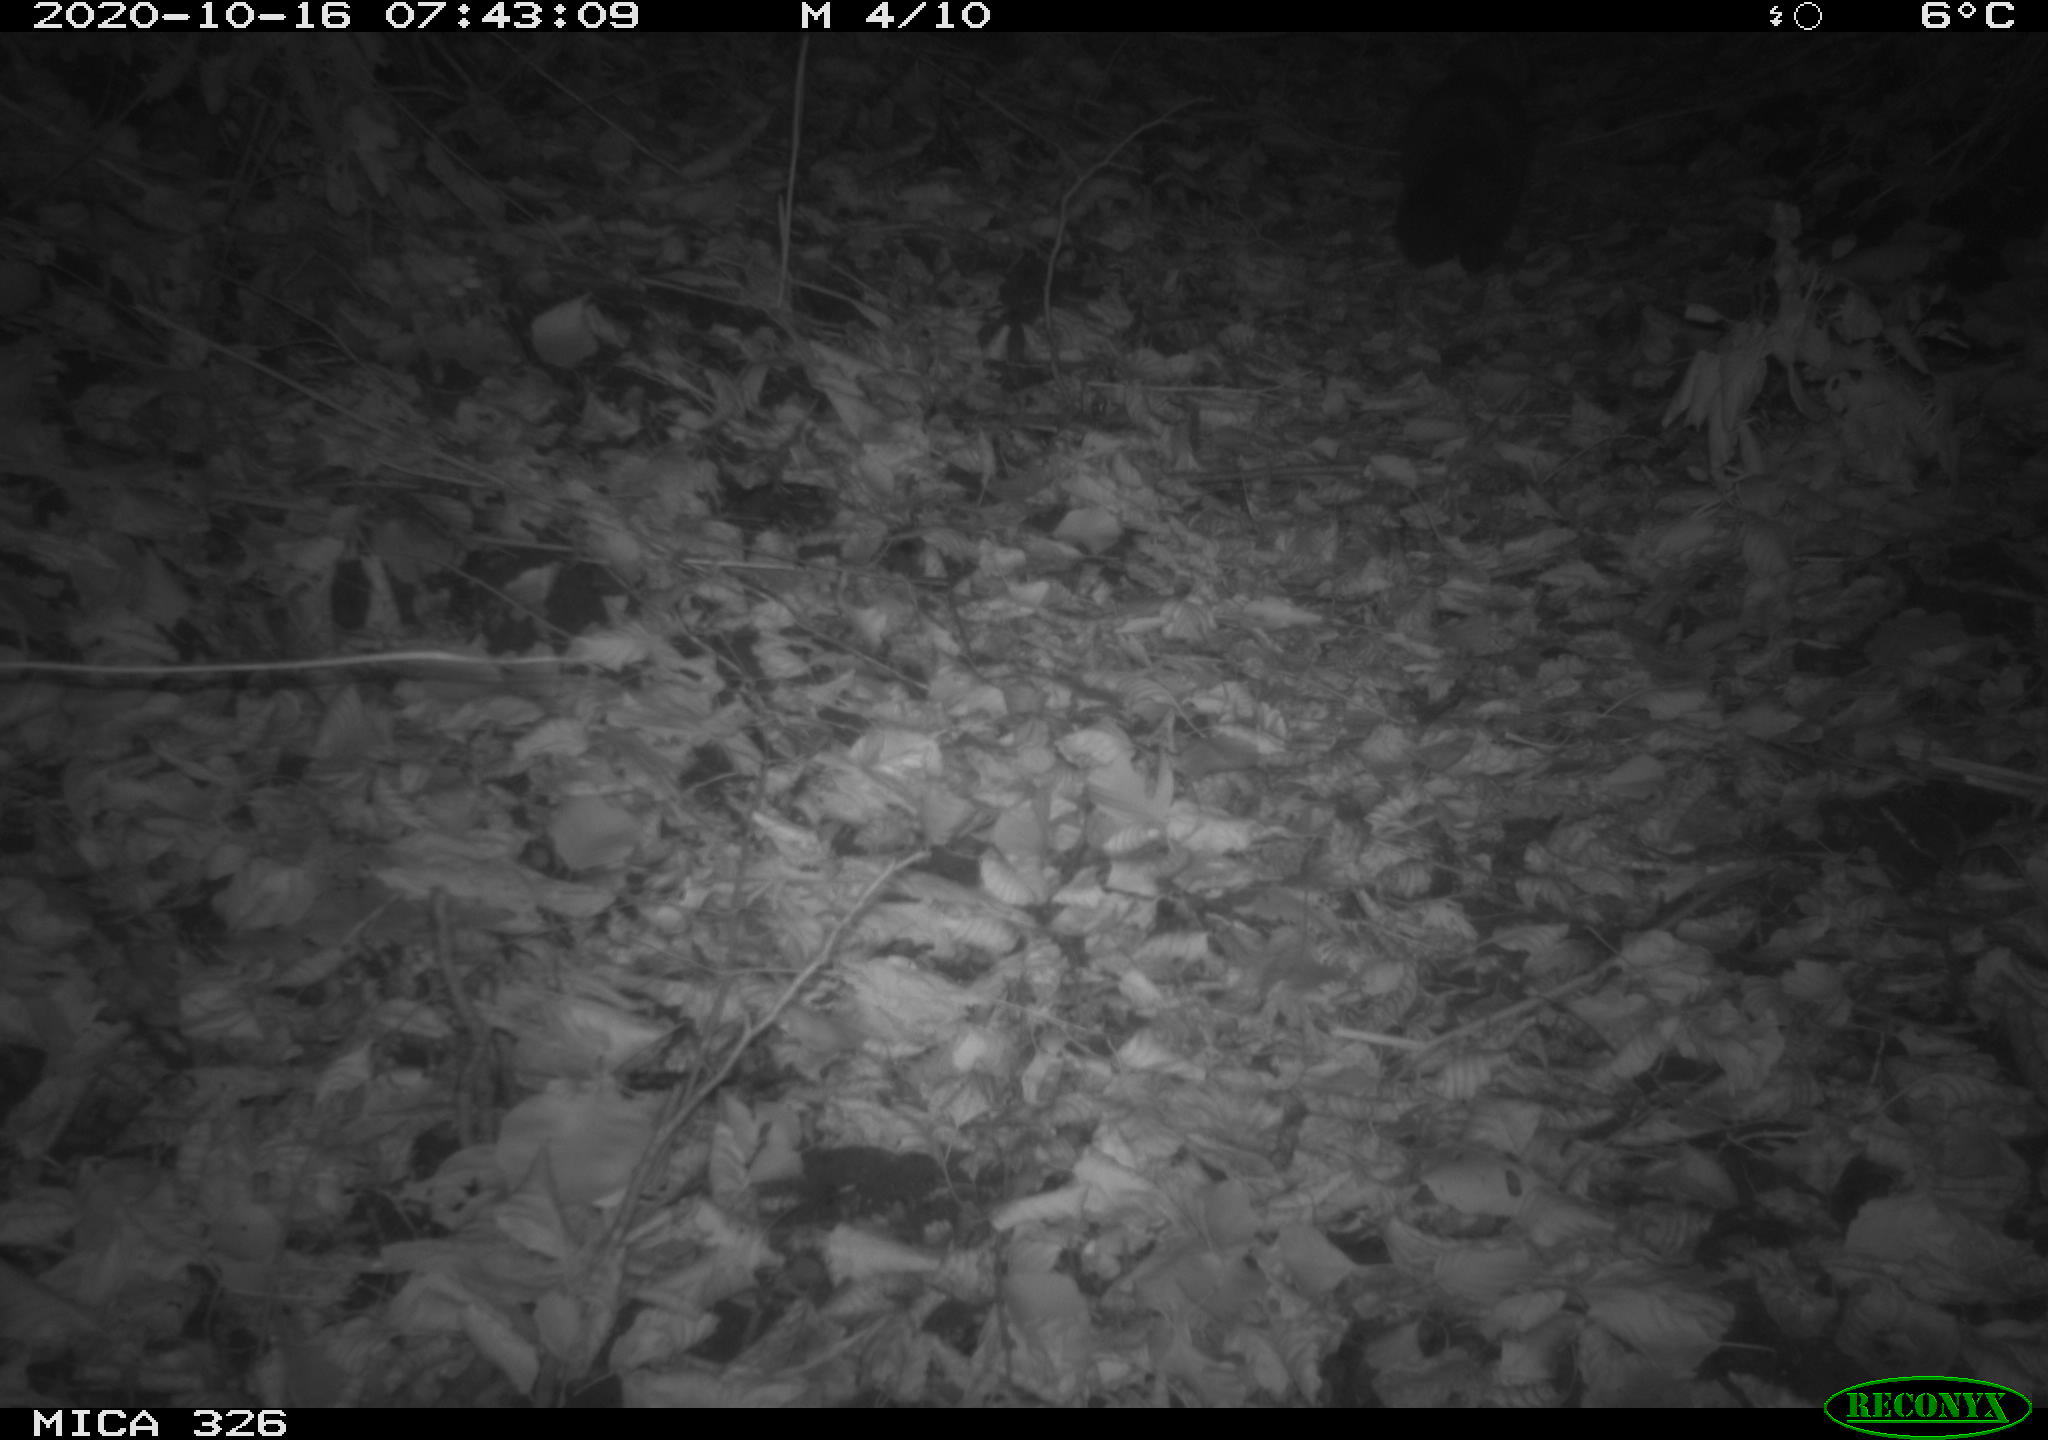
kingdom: Animalia
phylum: Chordata
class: Mammalia
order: Carnivora
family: Mustelidae
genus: Martes
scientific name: Martes foina
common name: Beech marten
